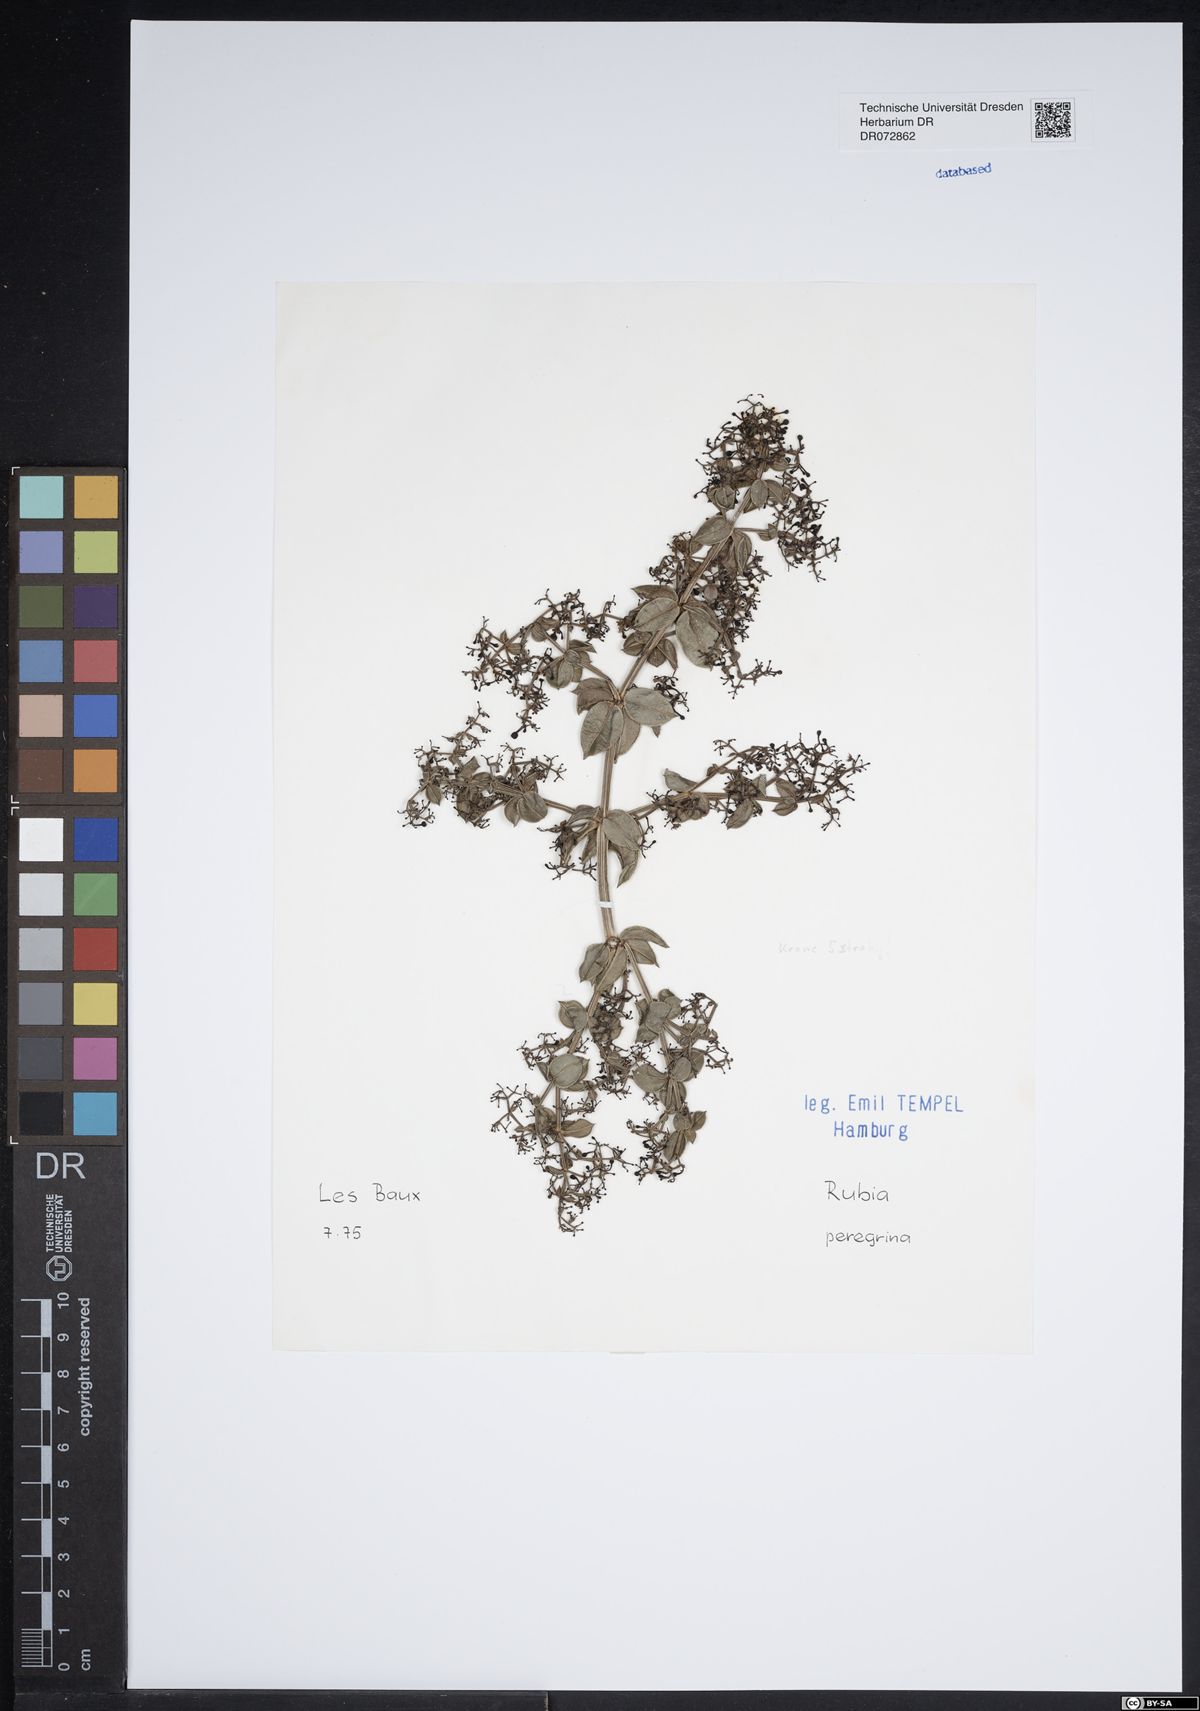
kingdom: Plantae
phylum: Tracheophyta
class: Magnoliopsida
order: Gentianales
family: Rubiaceae
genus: Rubia
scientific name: Rubia peregrina
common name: Wild madder
